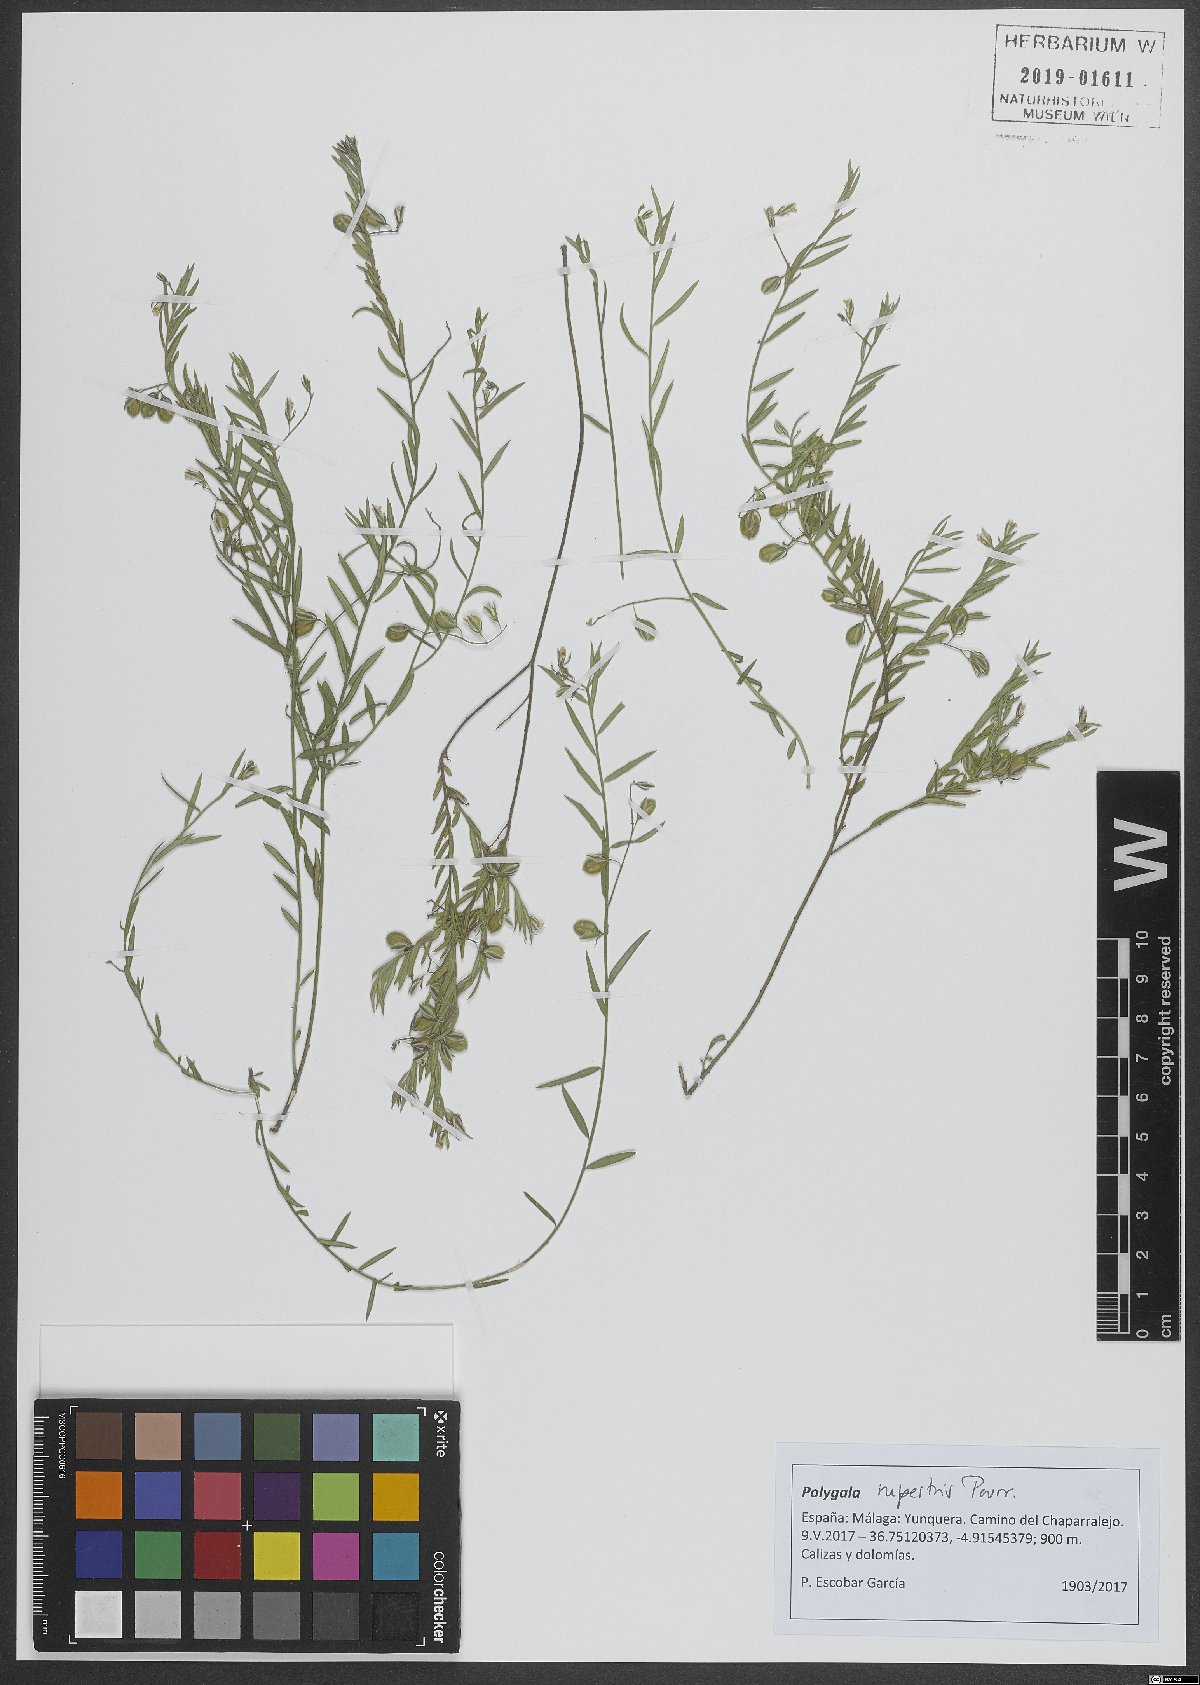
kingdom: Plantae
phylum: Tracheophyta
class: Magnoliopsida
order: Fabales
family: Polygalaceae
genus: Polygala
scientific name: Polygala rupestris
